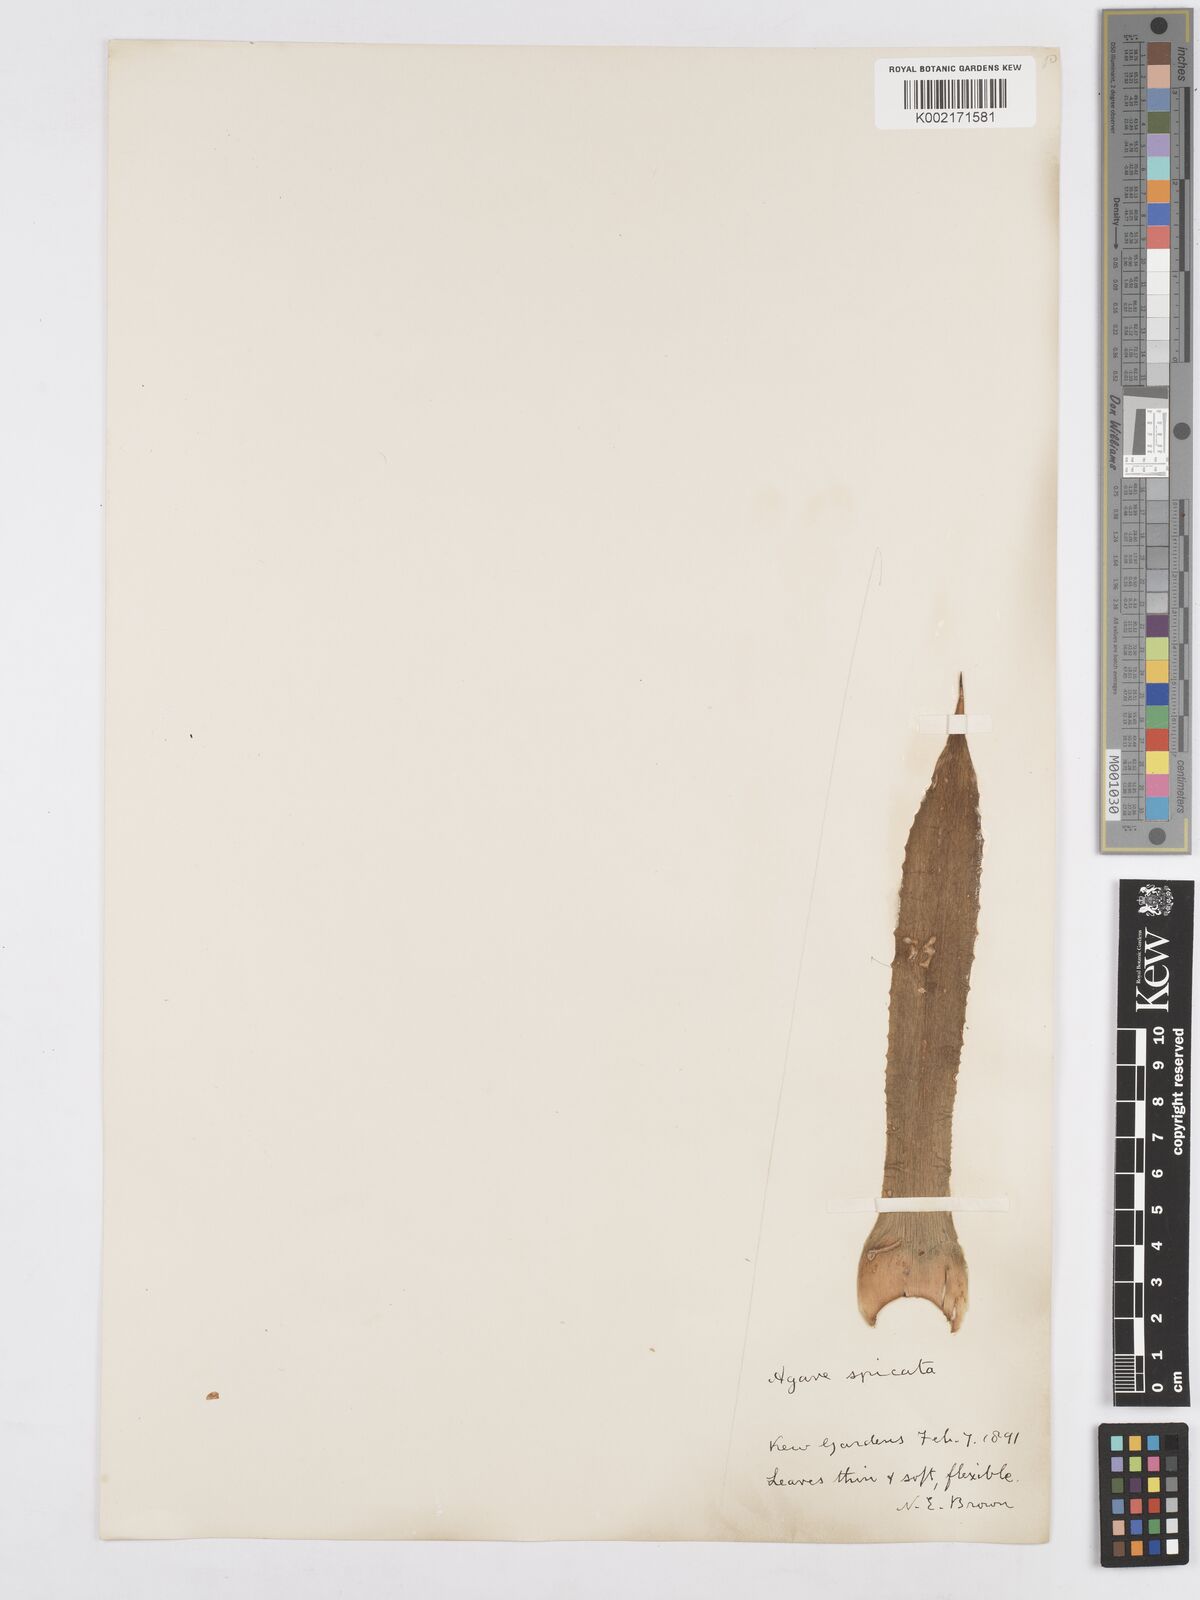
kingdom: Plantae
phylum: Tracheophyta
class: Liliopsida
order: Asparagales
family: Asparagaceae
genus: Agave
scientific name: Agave spicata
